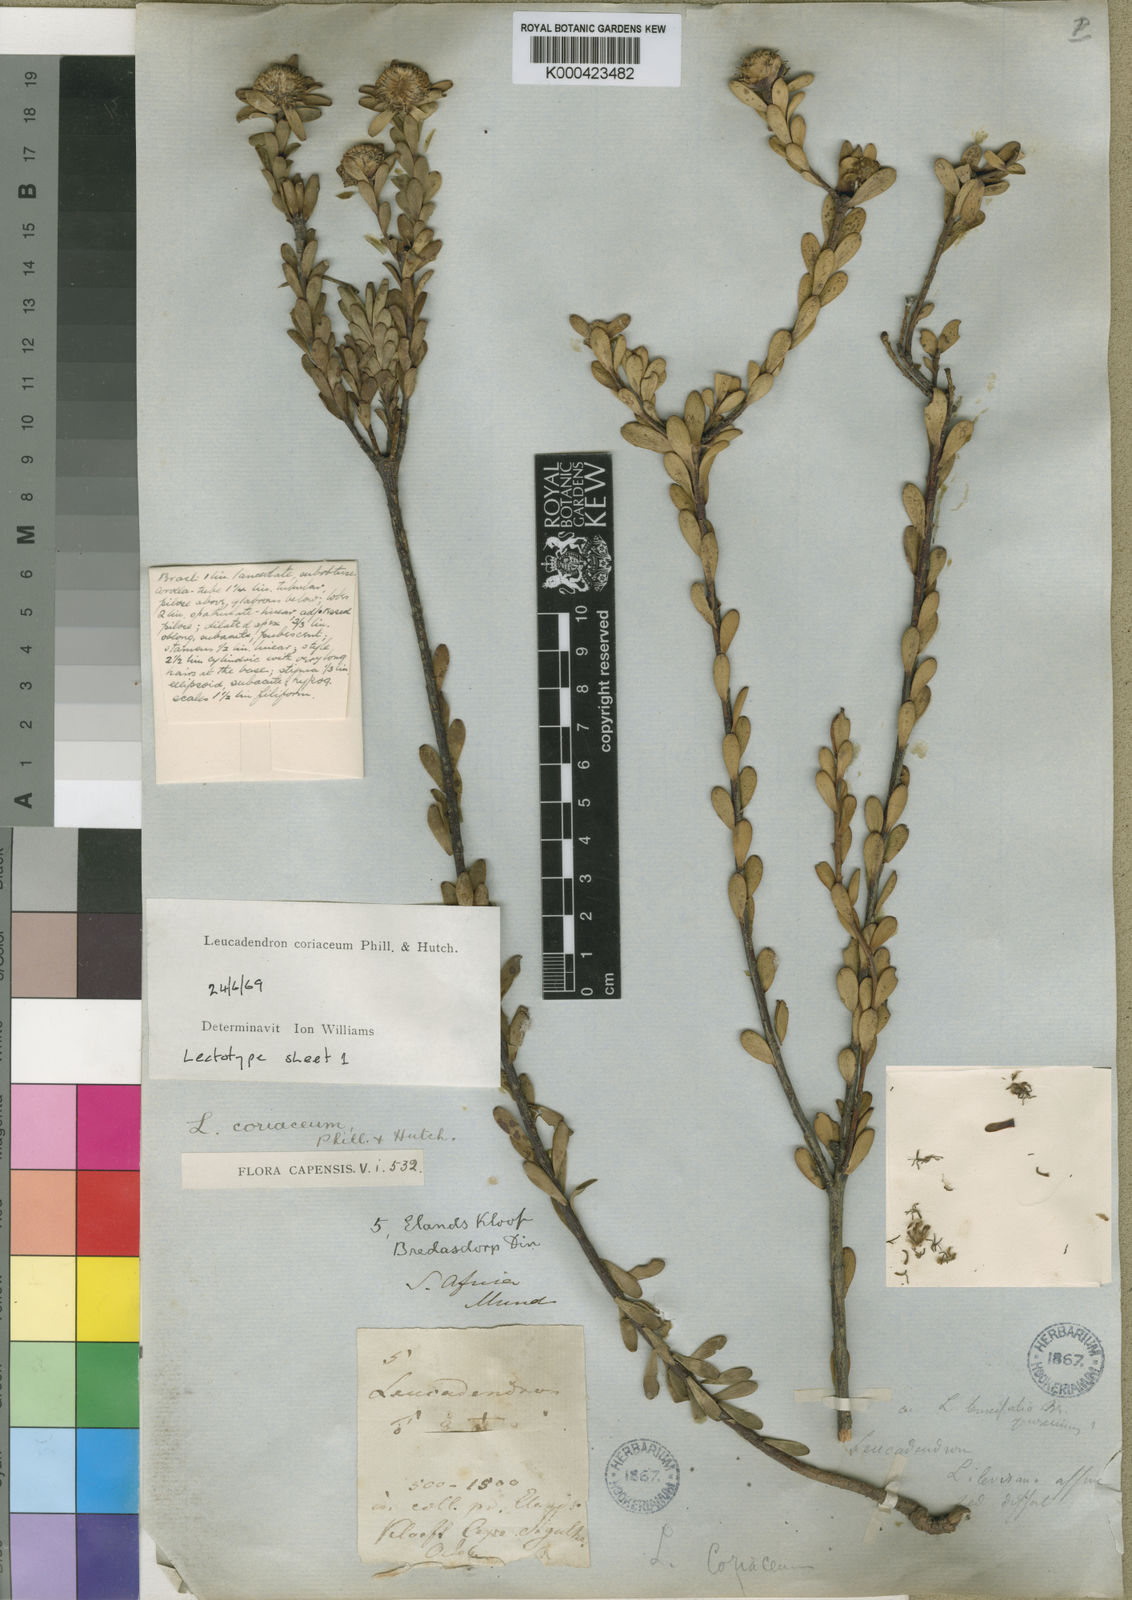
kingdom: Plantae
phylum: Tracheophyta
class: Magnoliopsida
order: Proteales
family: Proteaceae
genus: Leucadendron
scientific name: Leucadendron coriaceum
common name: Rosette conebush
